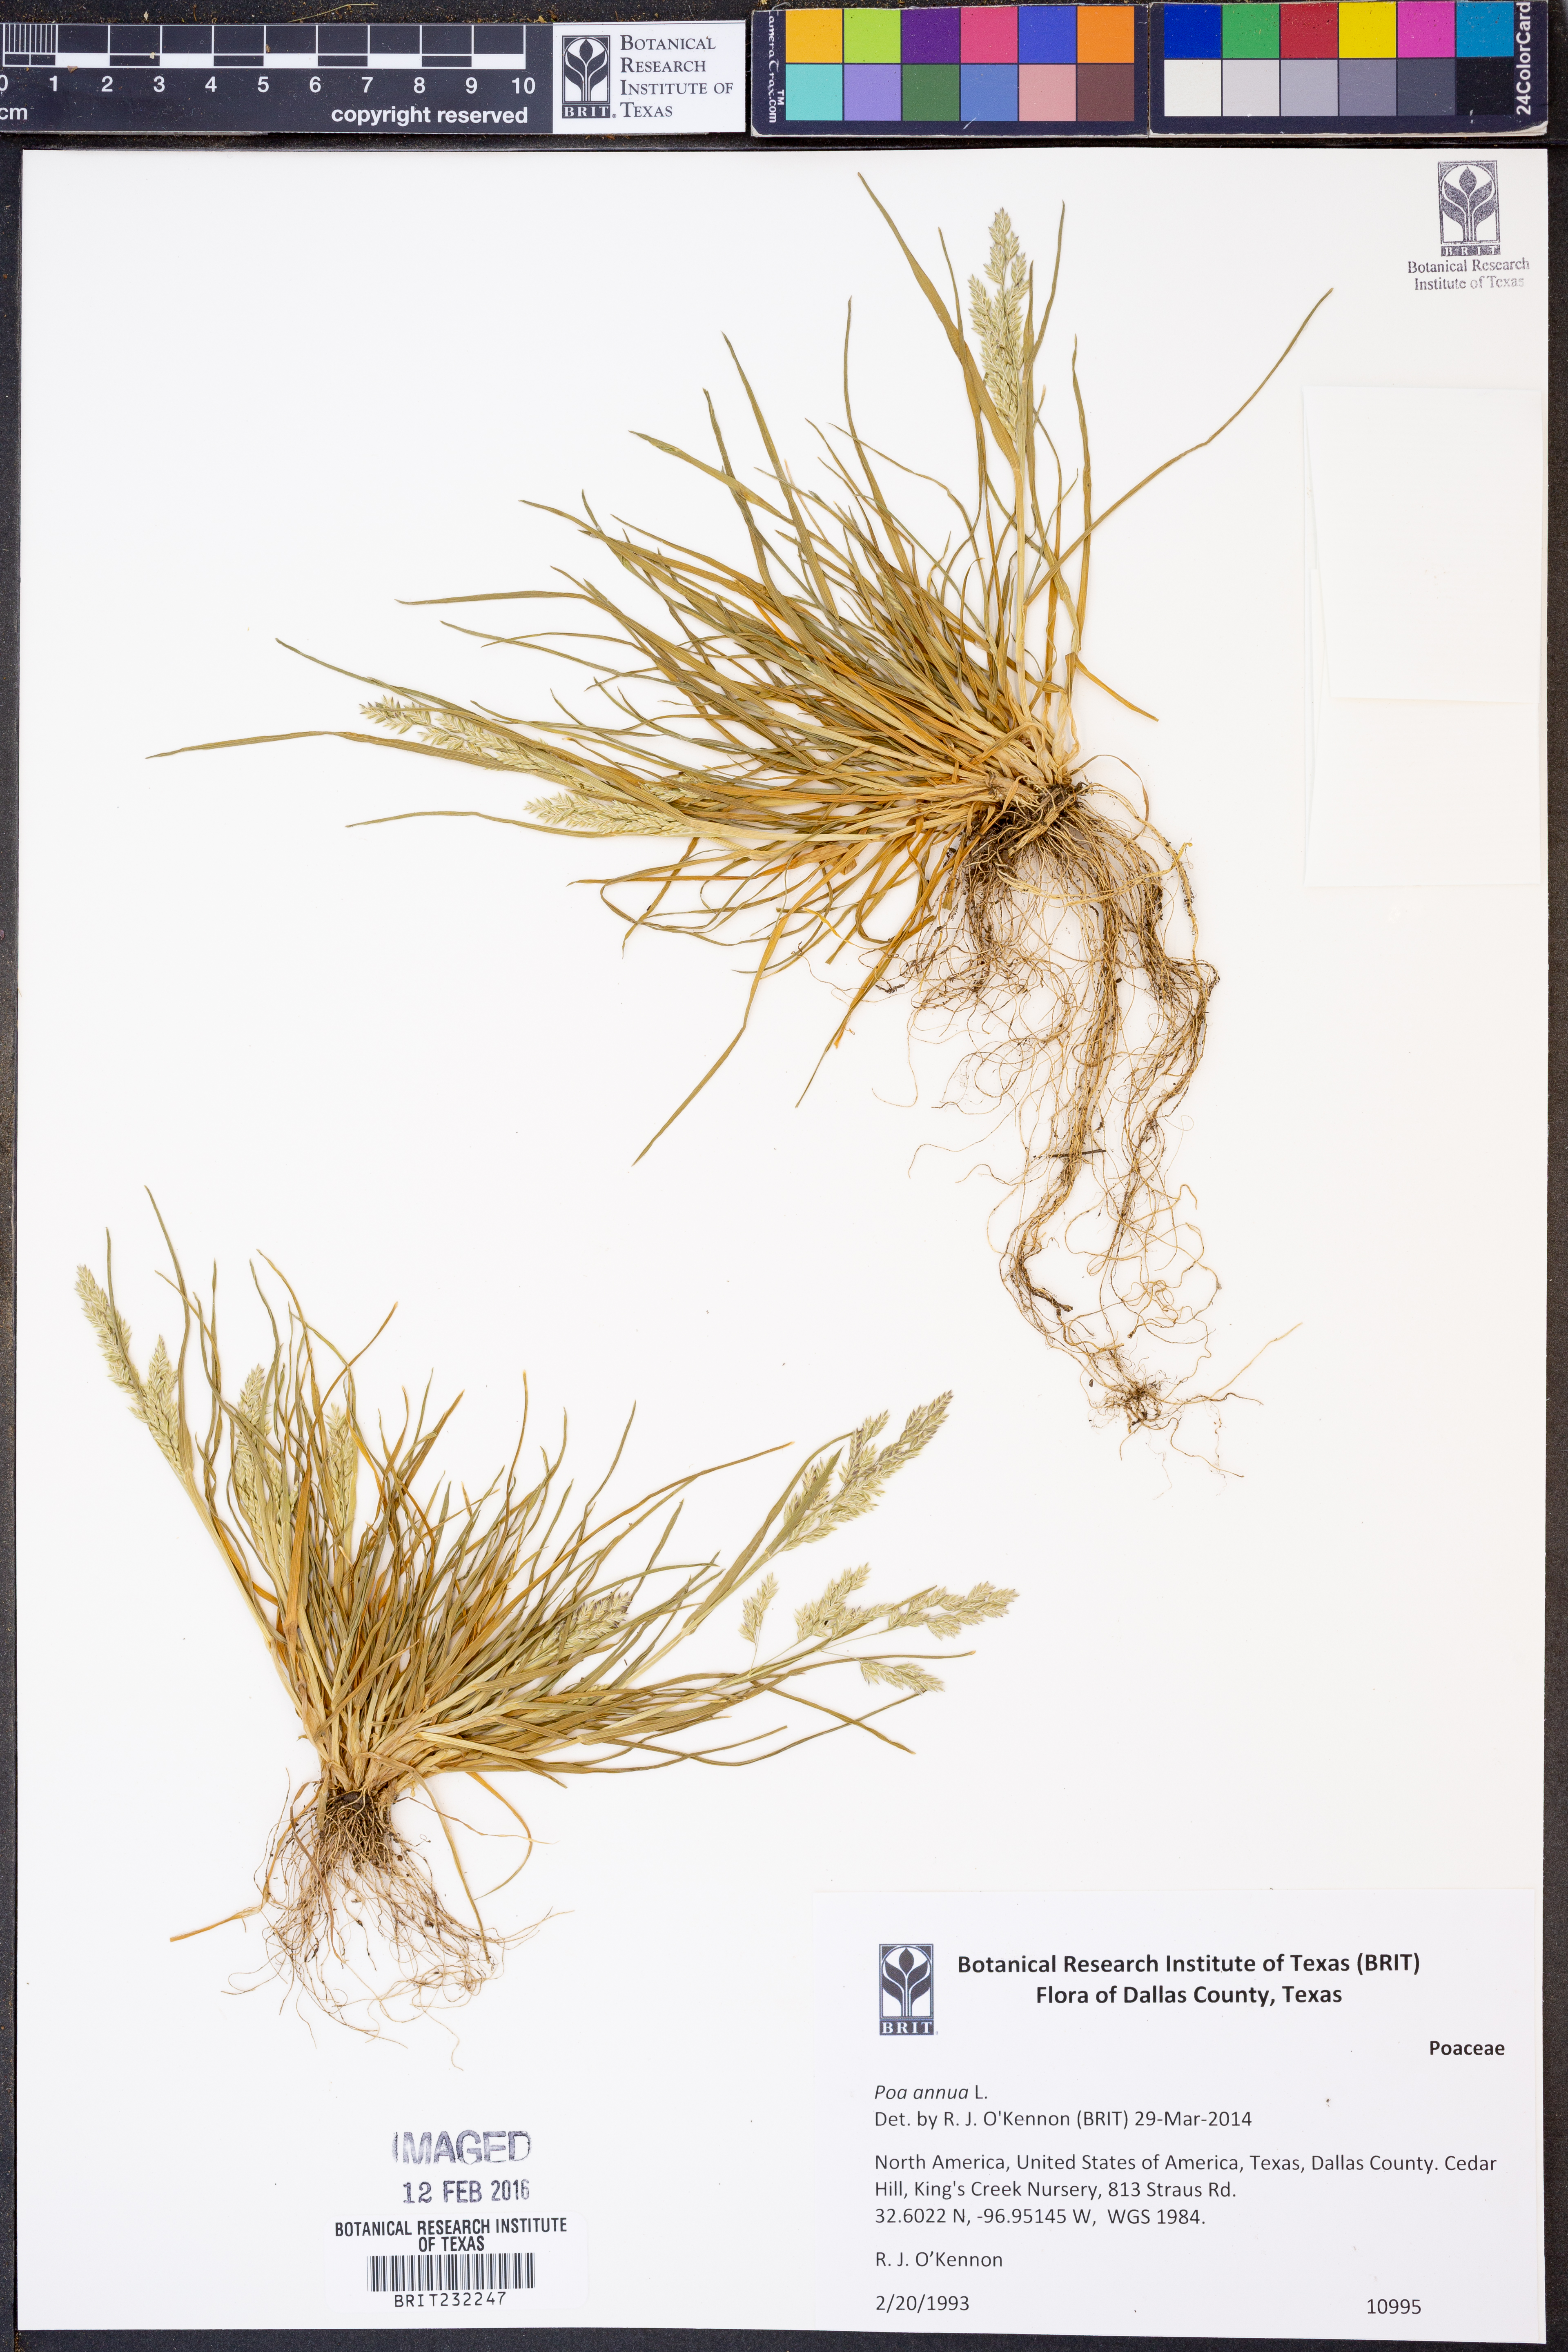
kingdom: Plantae
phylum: Tracheophyta
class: Liliopsida
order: Poales
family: Poaceae
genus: Poa
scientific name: Poa annua
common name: Annual bluegrass
